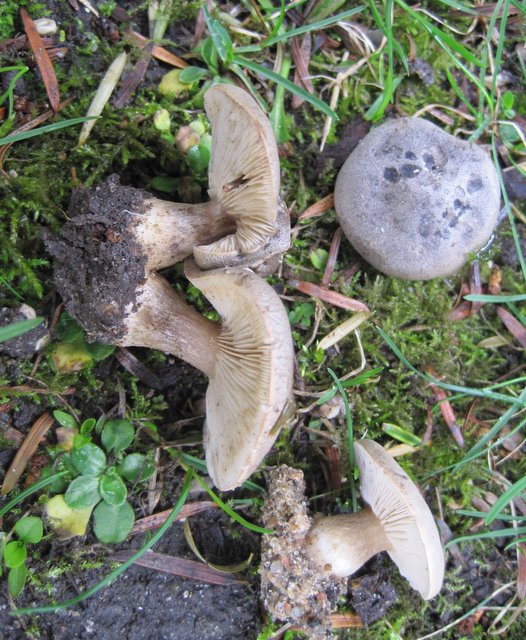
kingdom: Fungi
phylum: Basidiomycota
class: Agaricomycetes
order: Agaricales
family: Tricholomataceae
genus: Melanoleuca
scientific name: Melanoleuca
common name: munkehat
